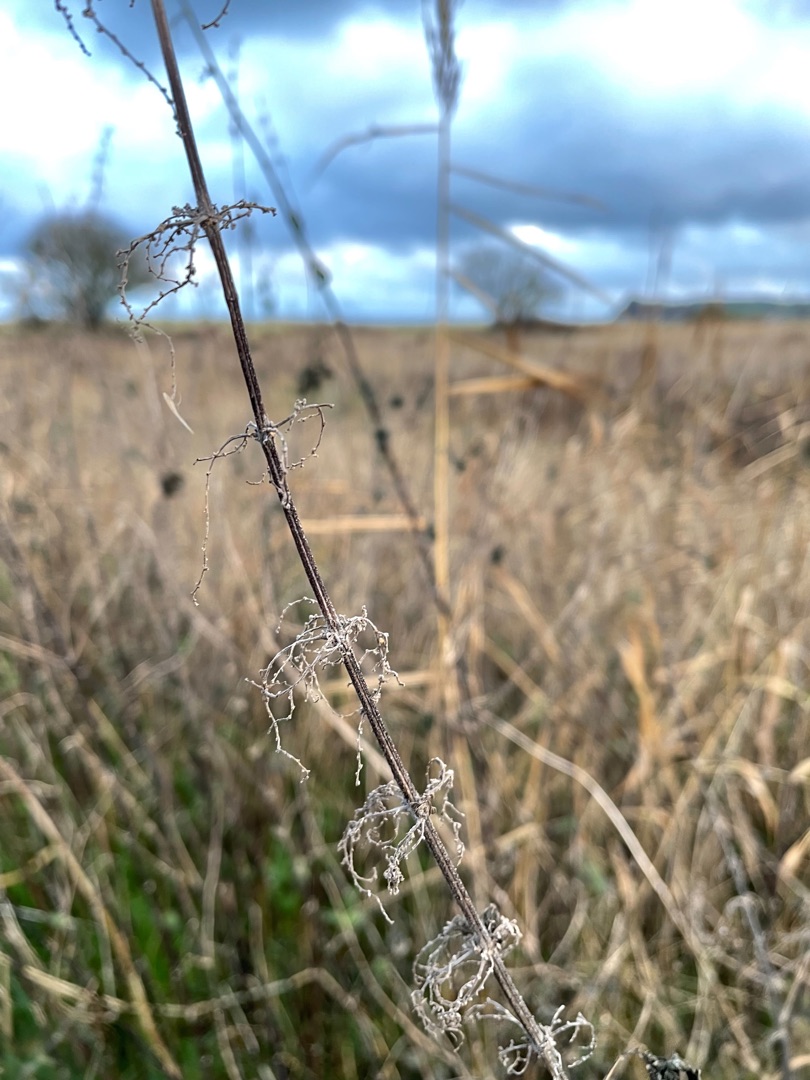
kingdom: Plantae
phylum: Tracheophyta
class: Magnoliopsida
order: Rosales
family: Urticaceae
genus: Urtica
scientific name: Urtica dioica
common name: Stor nælde
